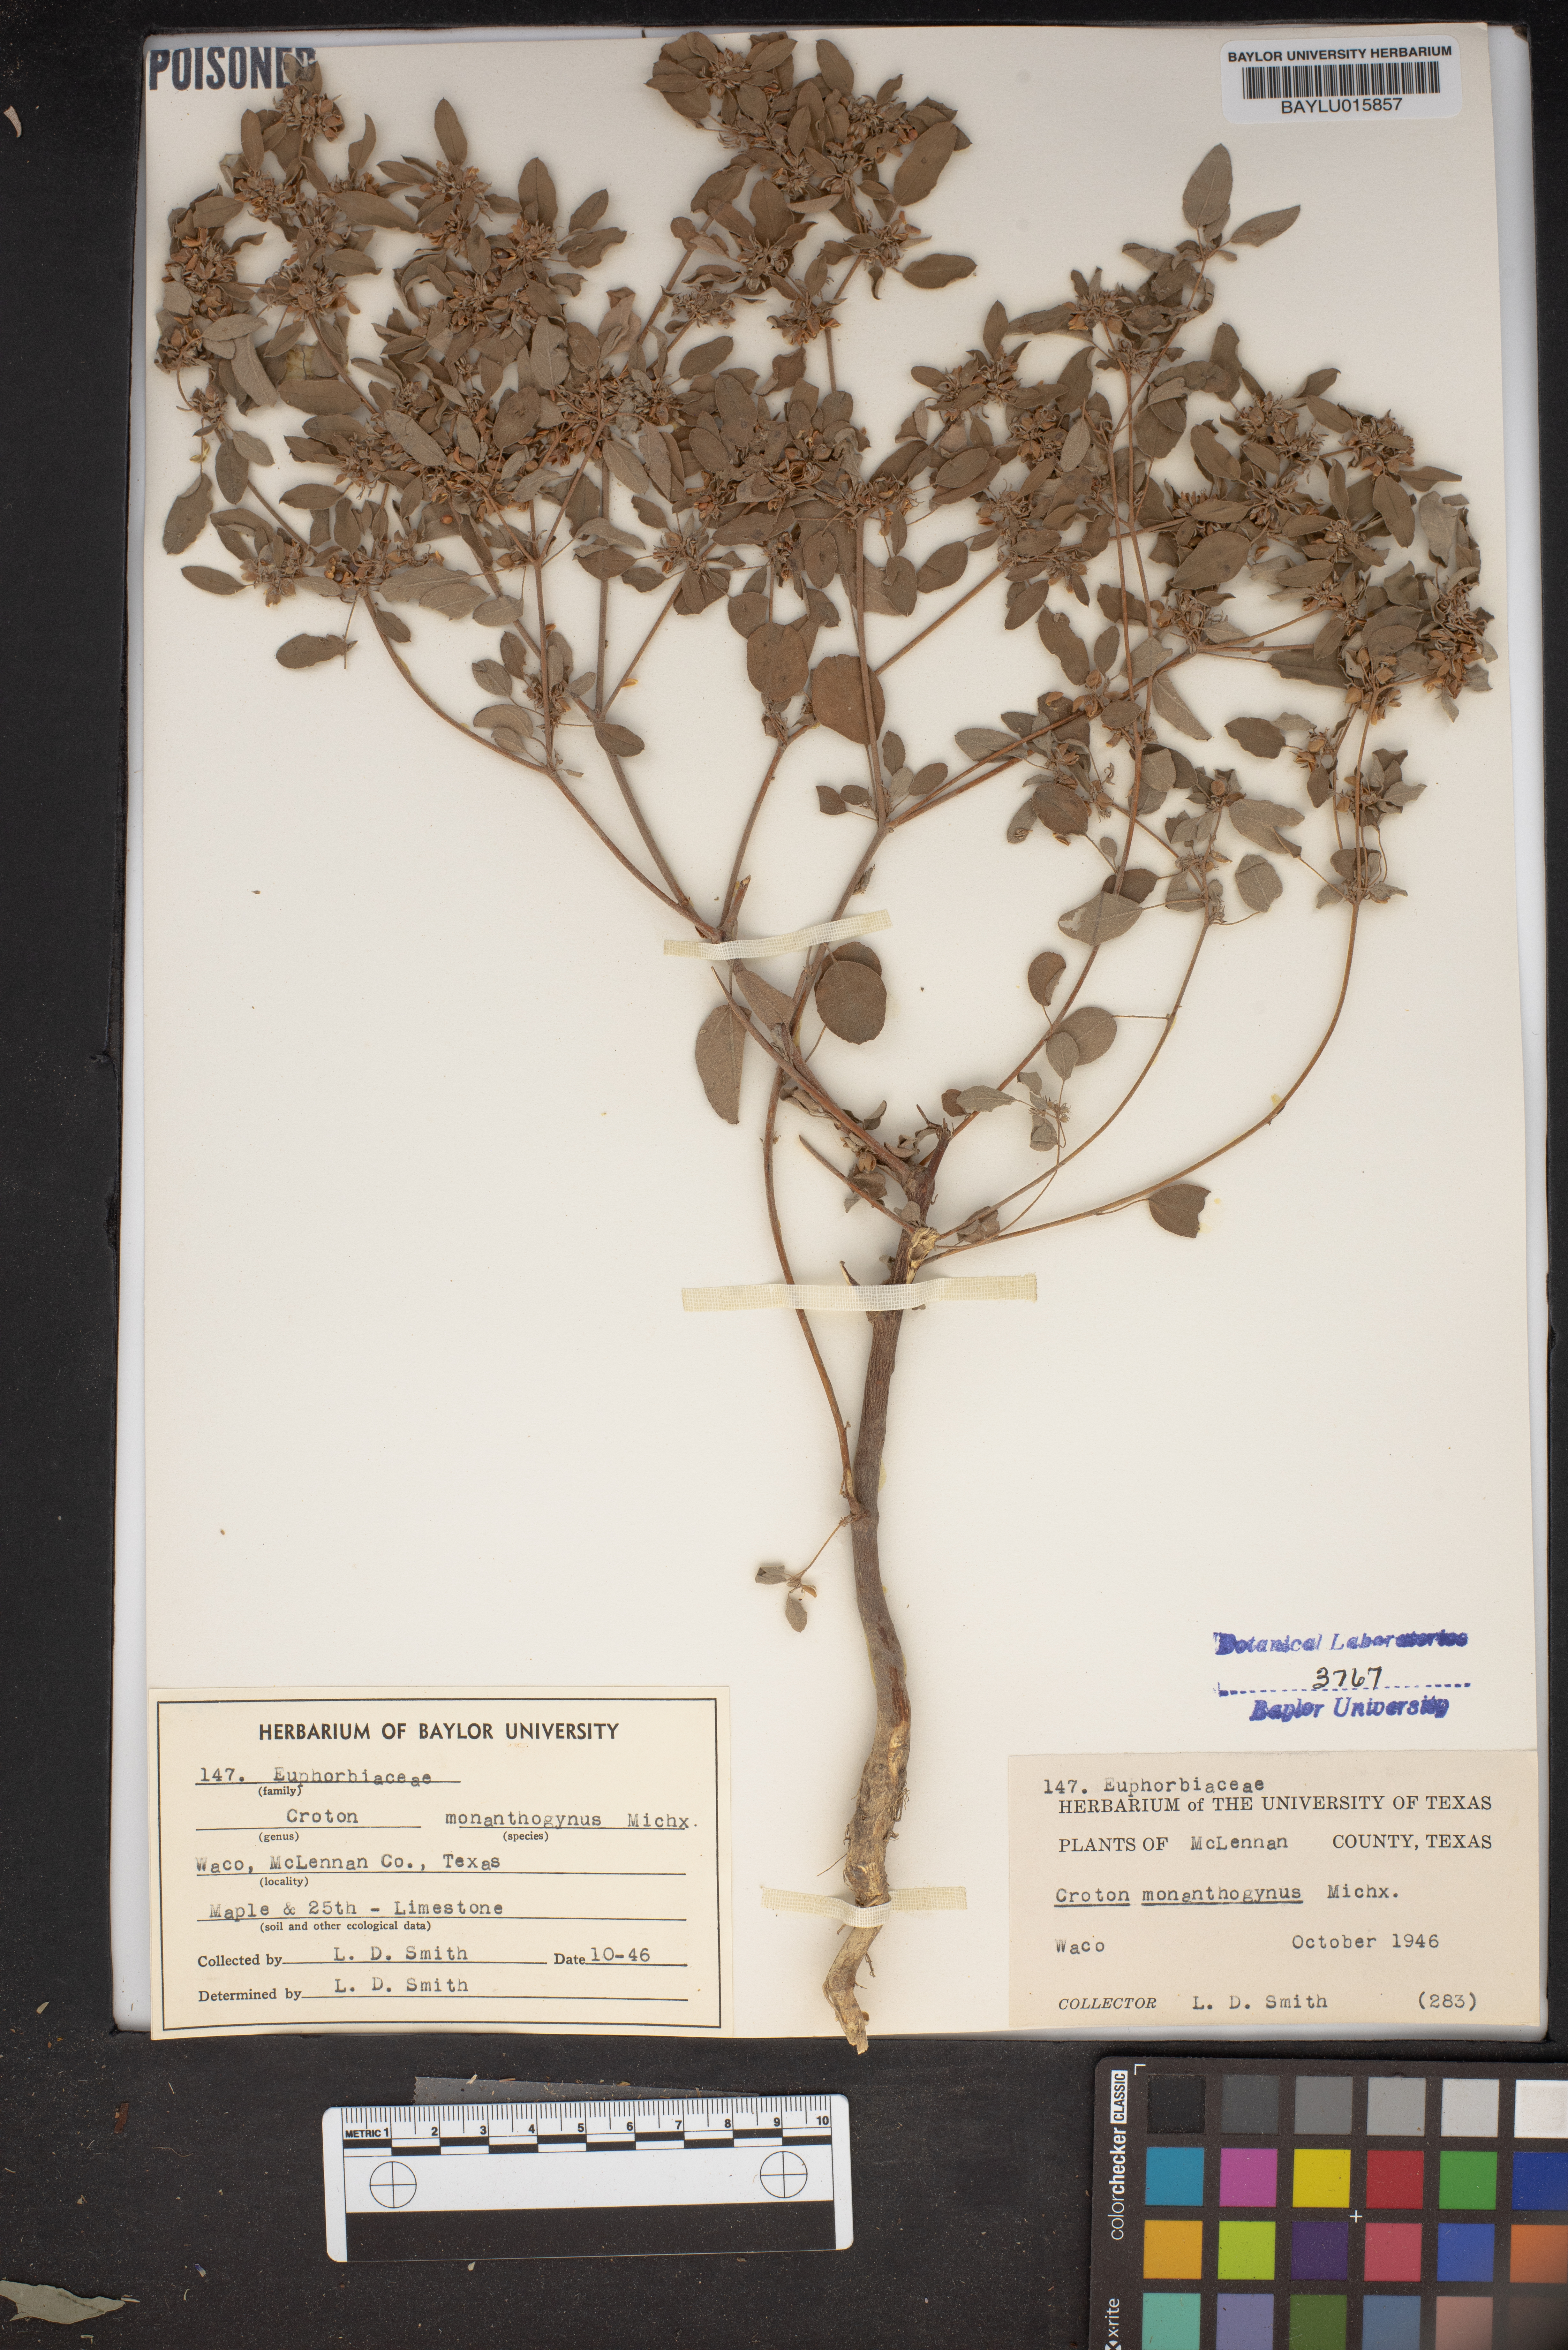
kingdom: Plantae
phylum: Tracheophyta
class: Magnoliopsida
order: Malpighiales
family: Euphorbiaceae
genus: Croton
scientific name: Croton monanthogynus
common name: One-seed croton
